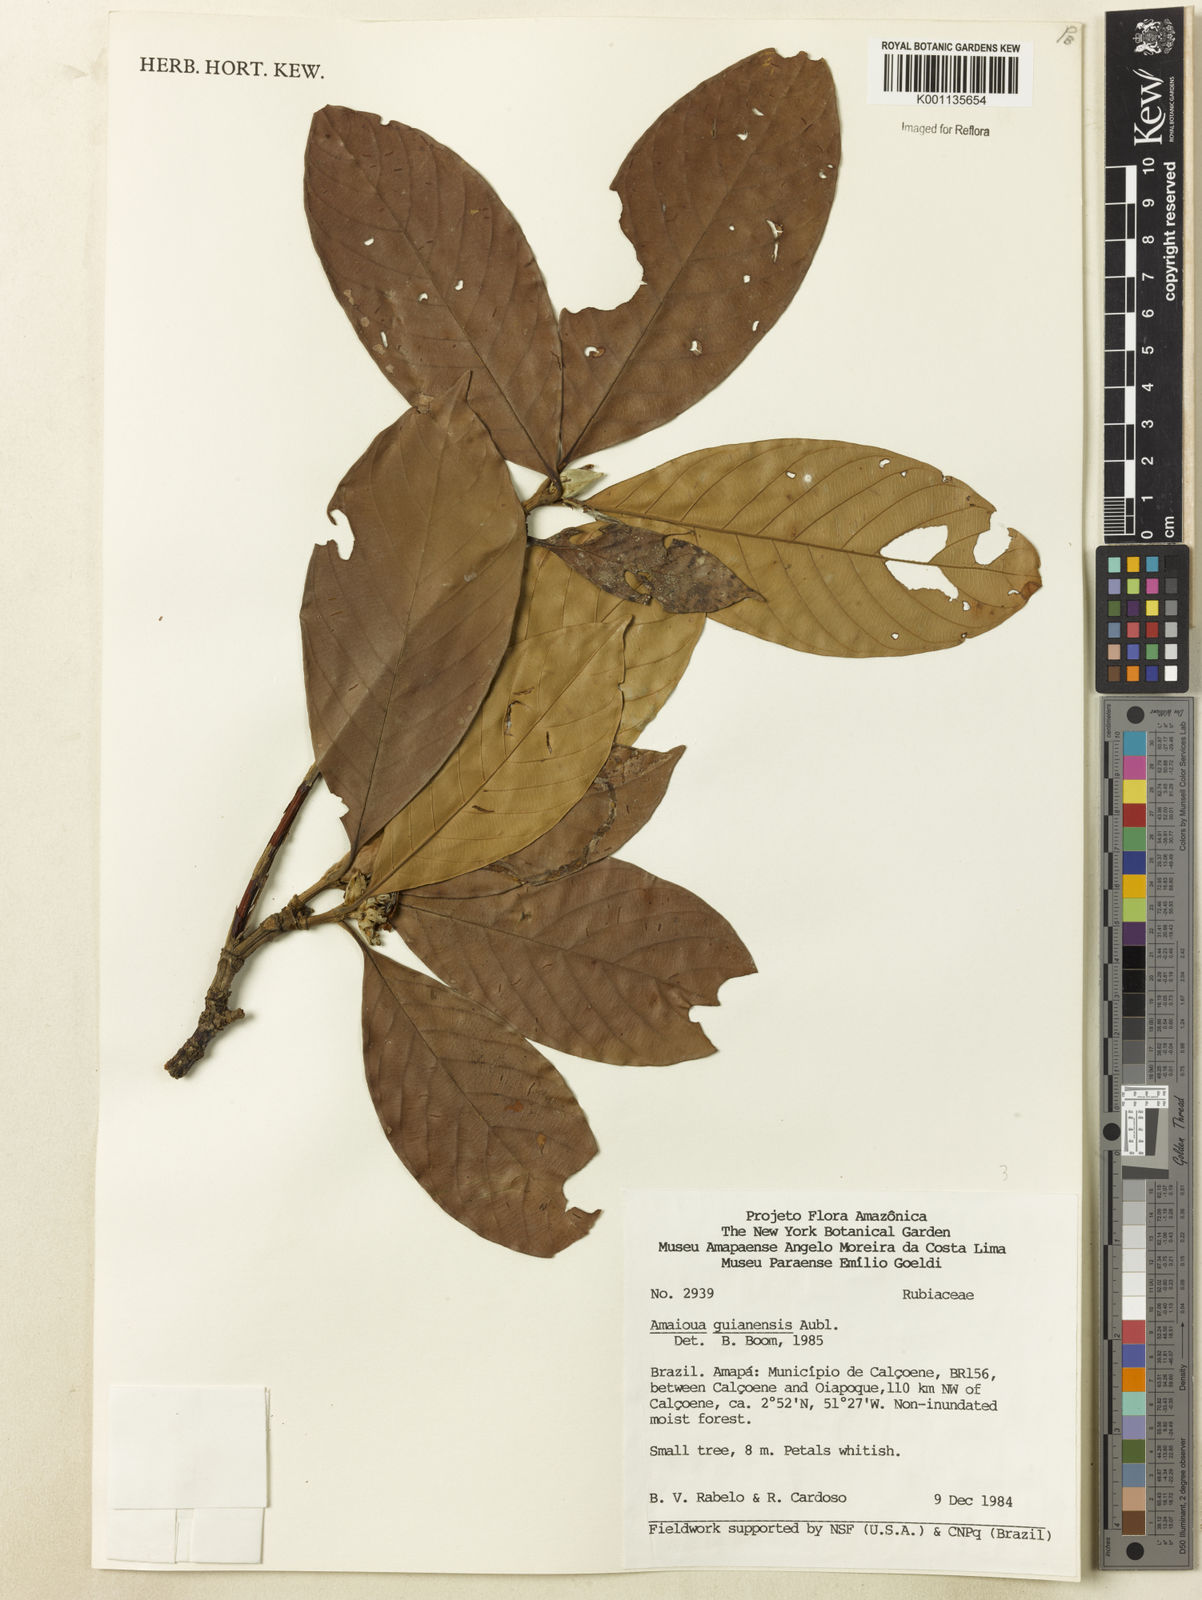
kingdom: Plantae
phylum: Tracheophyta
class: Magnoliopsida
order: Gentianales
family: Rubiaceae
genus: Amaioua
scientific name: Amaioua guianensis
